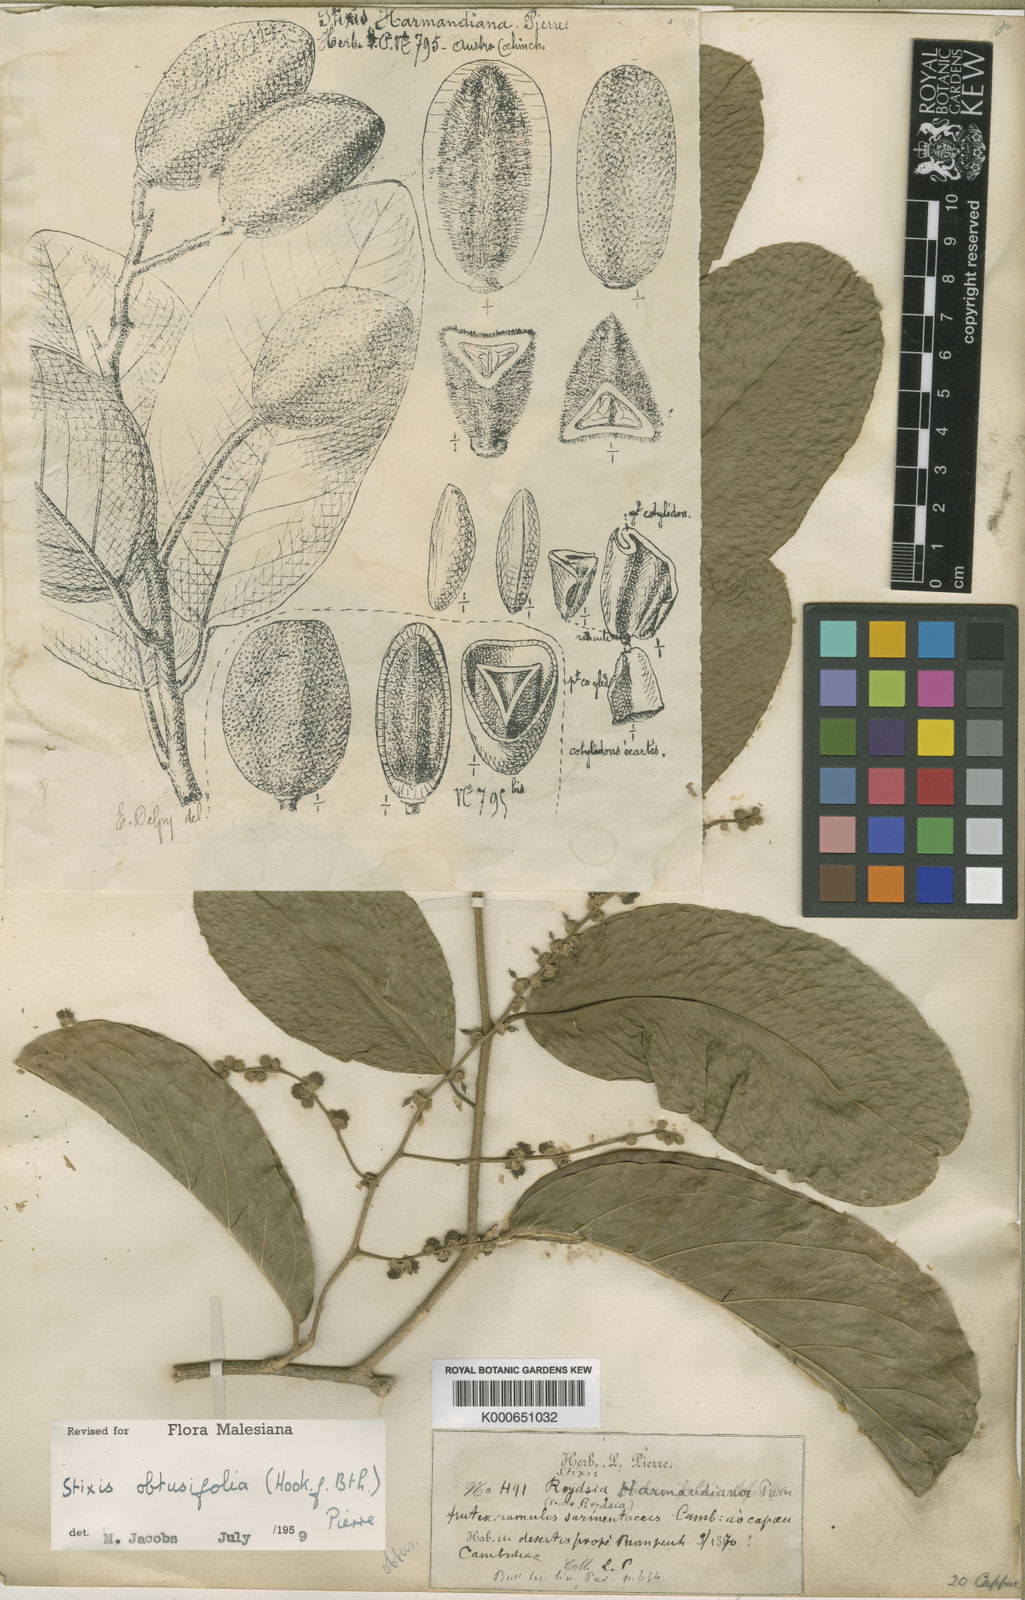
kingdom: Plantae
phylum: Tracheophyta
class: Magnoliopsida
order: Brassicales
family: Stixaceae
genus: Stixis
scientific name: Stixis obtusifolia
